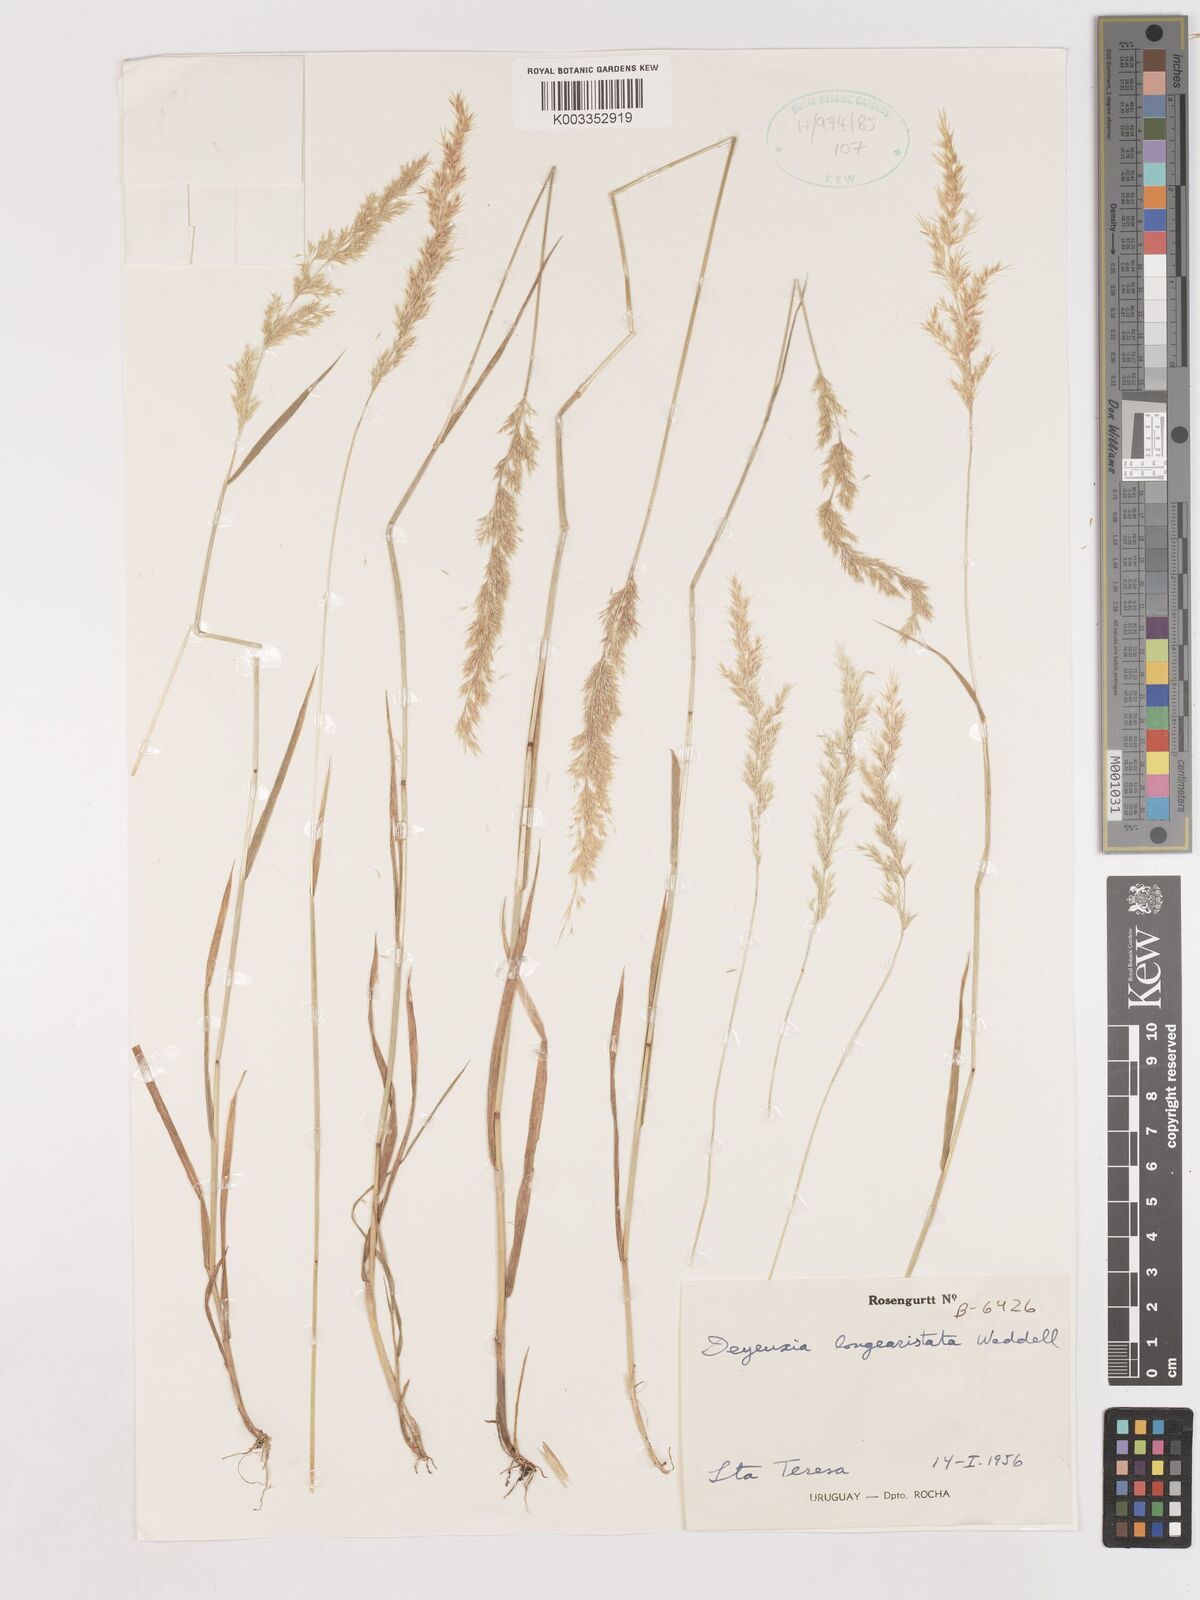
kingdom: Plantae
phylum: Tracheophyta
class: Liliopsida
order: Poales
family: Poaceae
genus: Cinnagrostis
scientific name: Cinnagrostis rupestris
